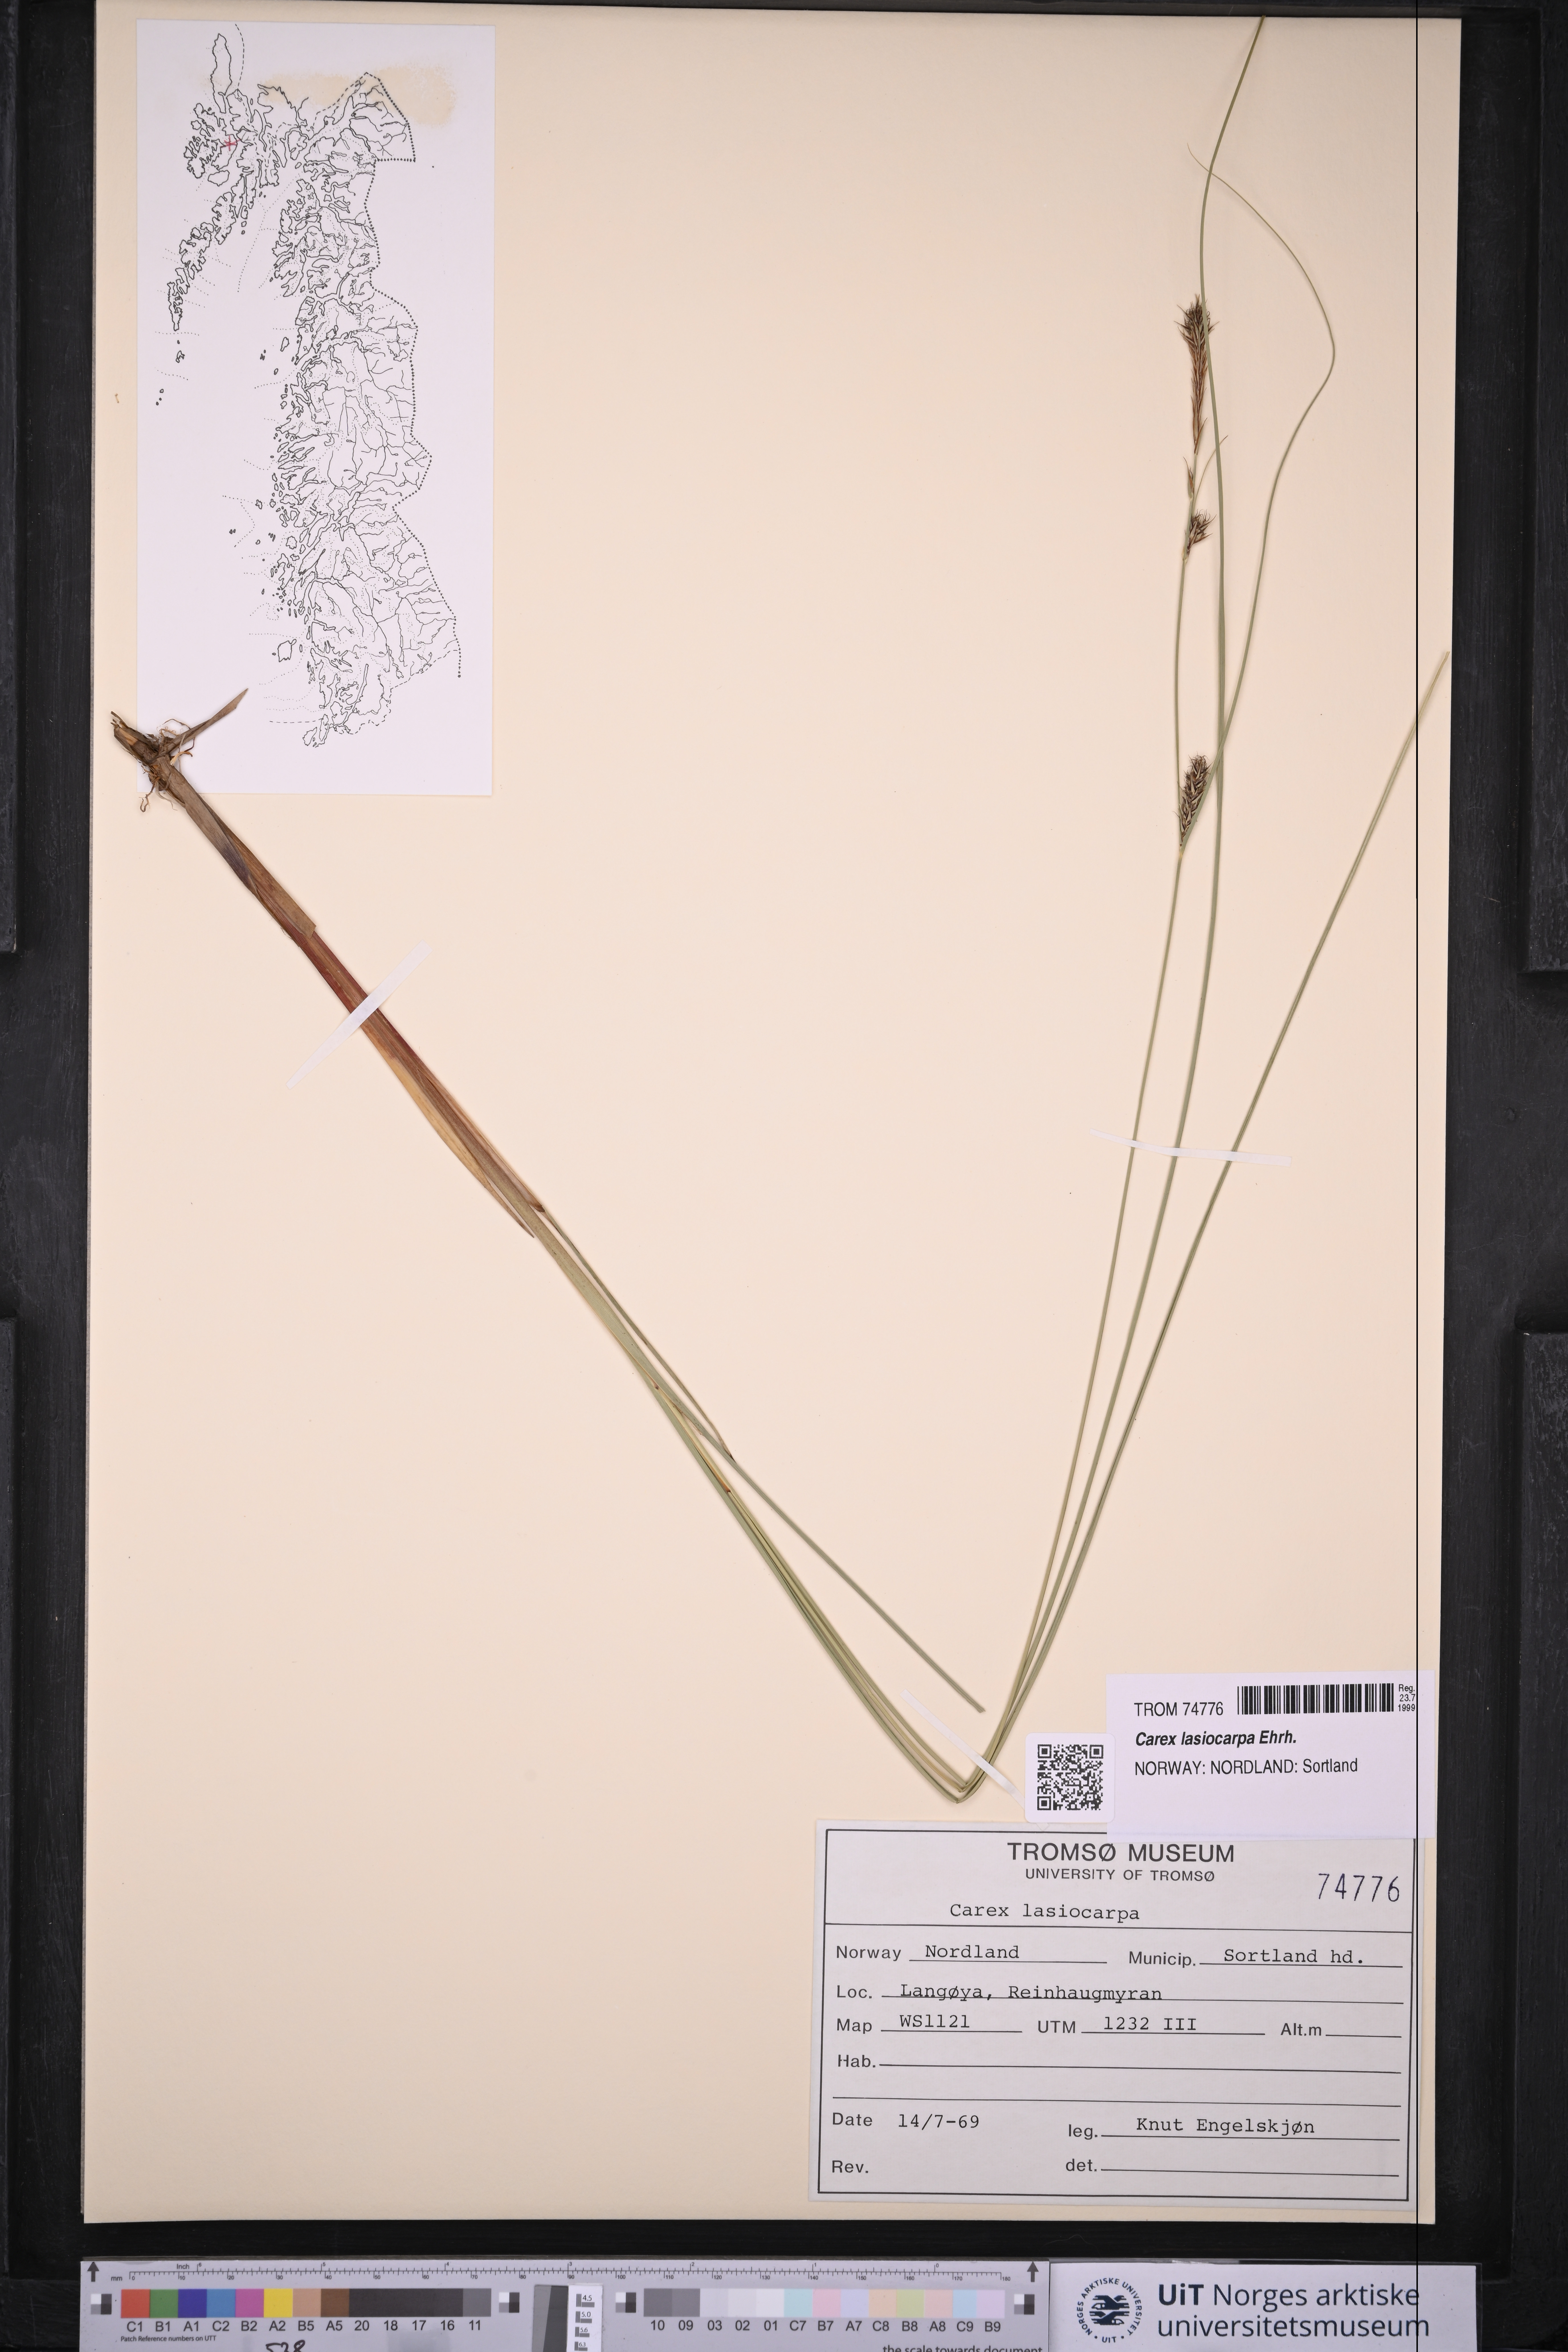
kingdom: Plantae
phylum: Tracheophyta
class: Liliopsida
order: Poales
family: Cyperaceae
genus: Carex
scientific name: Carex lasiocarpa
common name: Slender sedge
